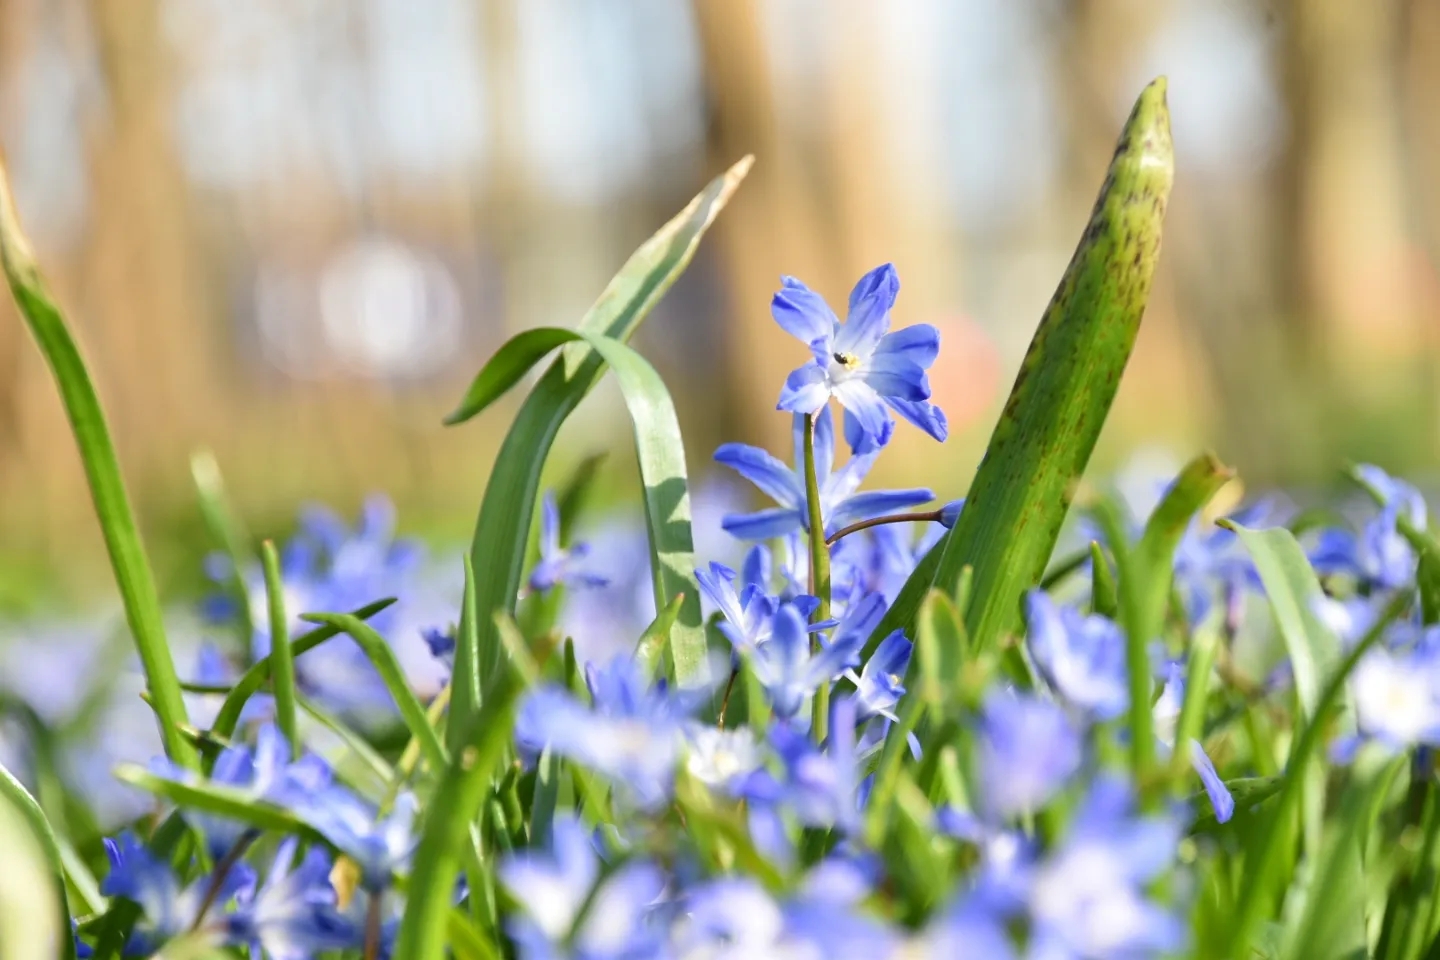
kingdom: Plantae
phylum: Tracheophyta
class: Liliopsida
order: Asparagales
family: Asparagaceae
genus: Scilla
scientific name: Scilla forbesii
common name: Almindelig snepryd
